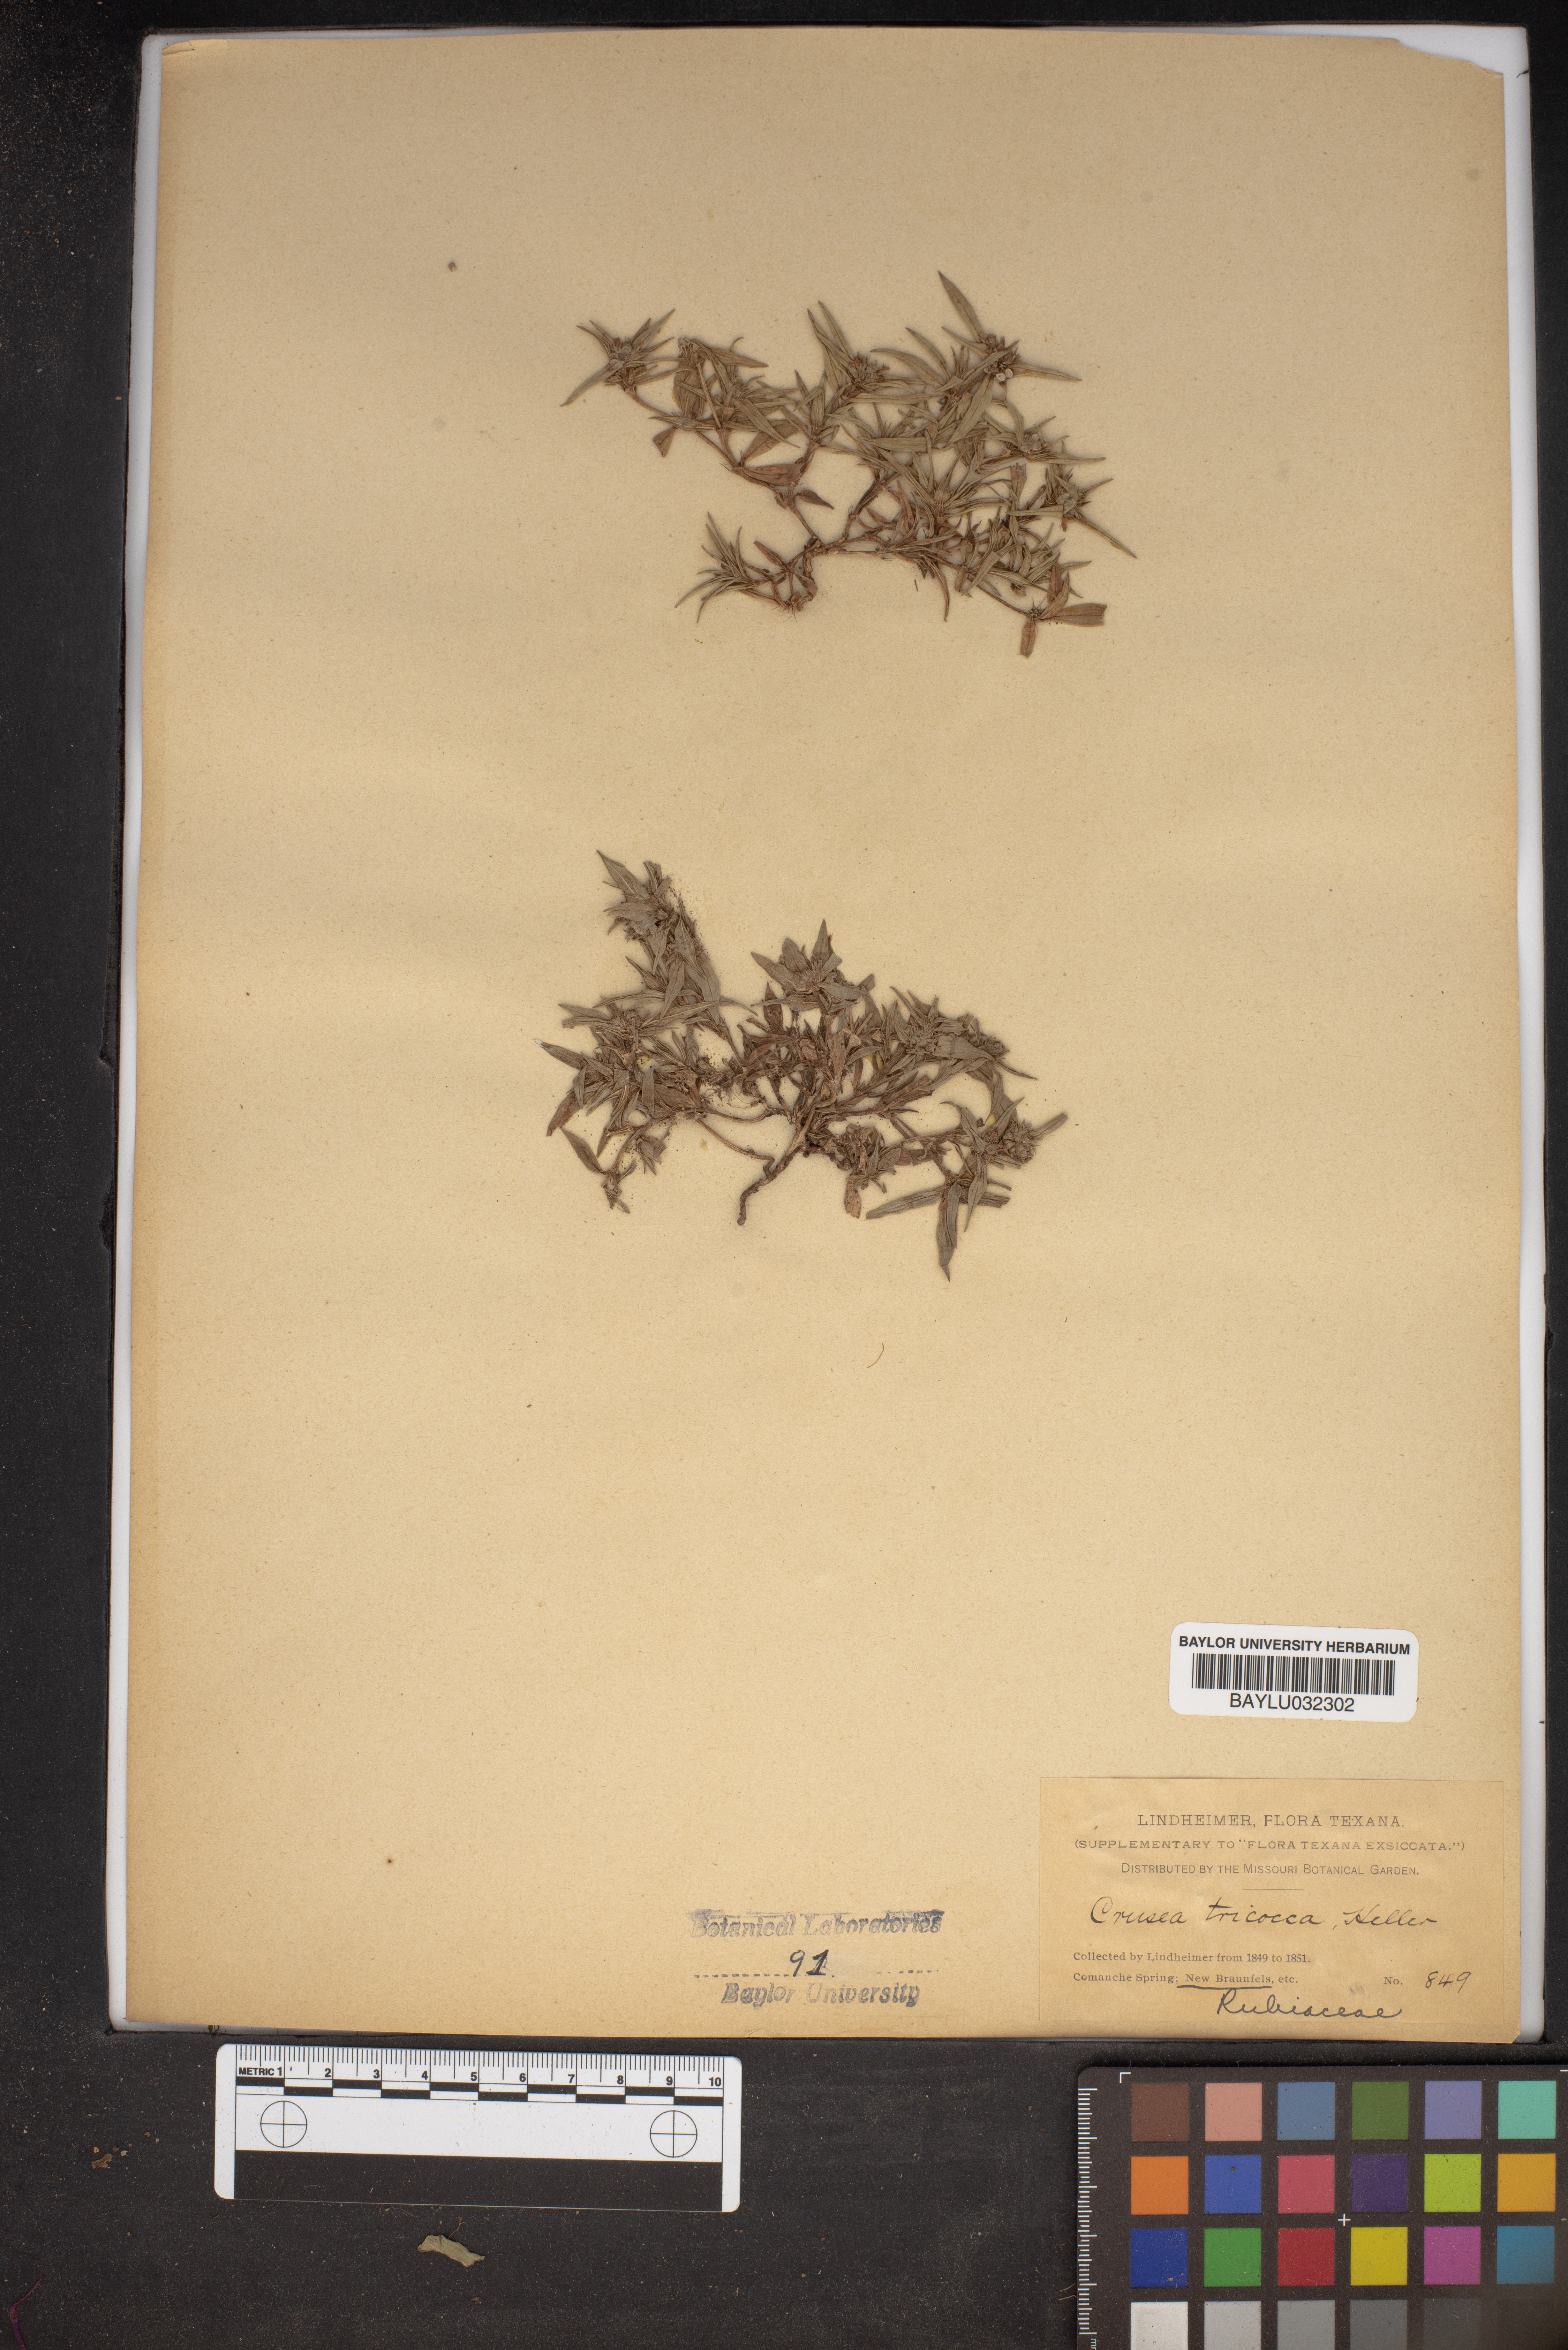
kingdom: Plantae
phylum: Tracheophyta
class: Magnoliopsida
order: Gentianales
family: Rubiaceae
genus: Richardia
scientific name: Richardia tricocca
